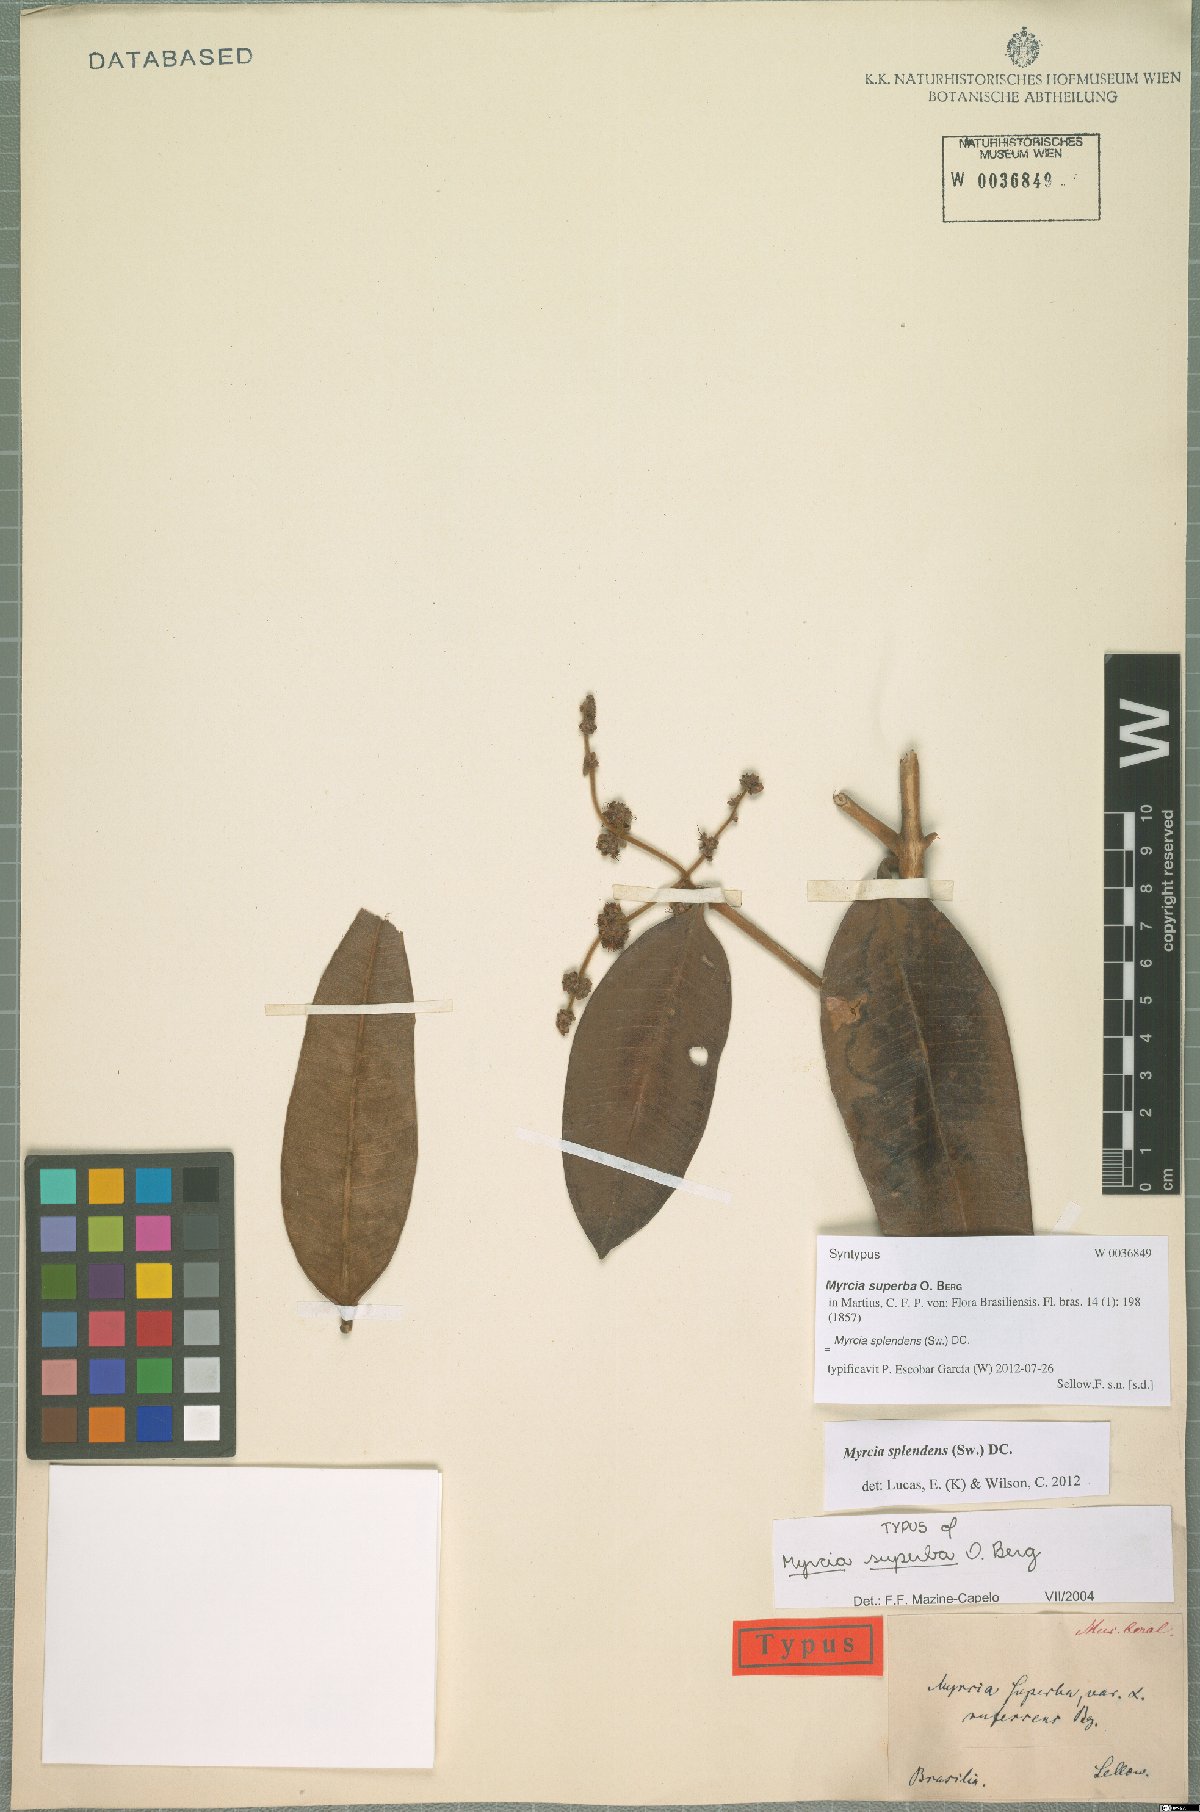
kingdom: Plantae
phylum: Tracheophyta
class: Magnoliopsida
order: Myrtales
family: Myrtaceae
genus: Myrcia
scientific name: Myrcia splendens
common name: Surinam cherry
